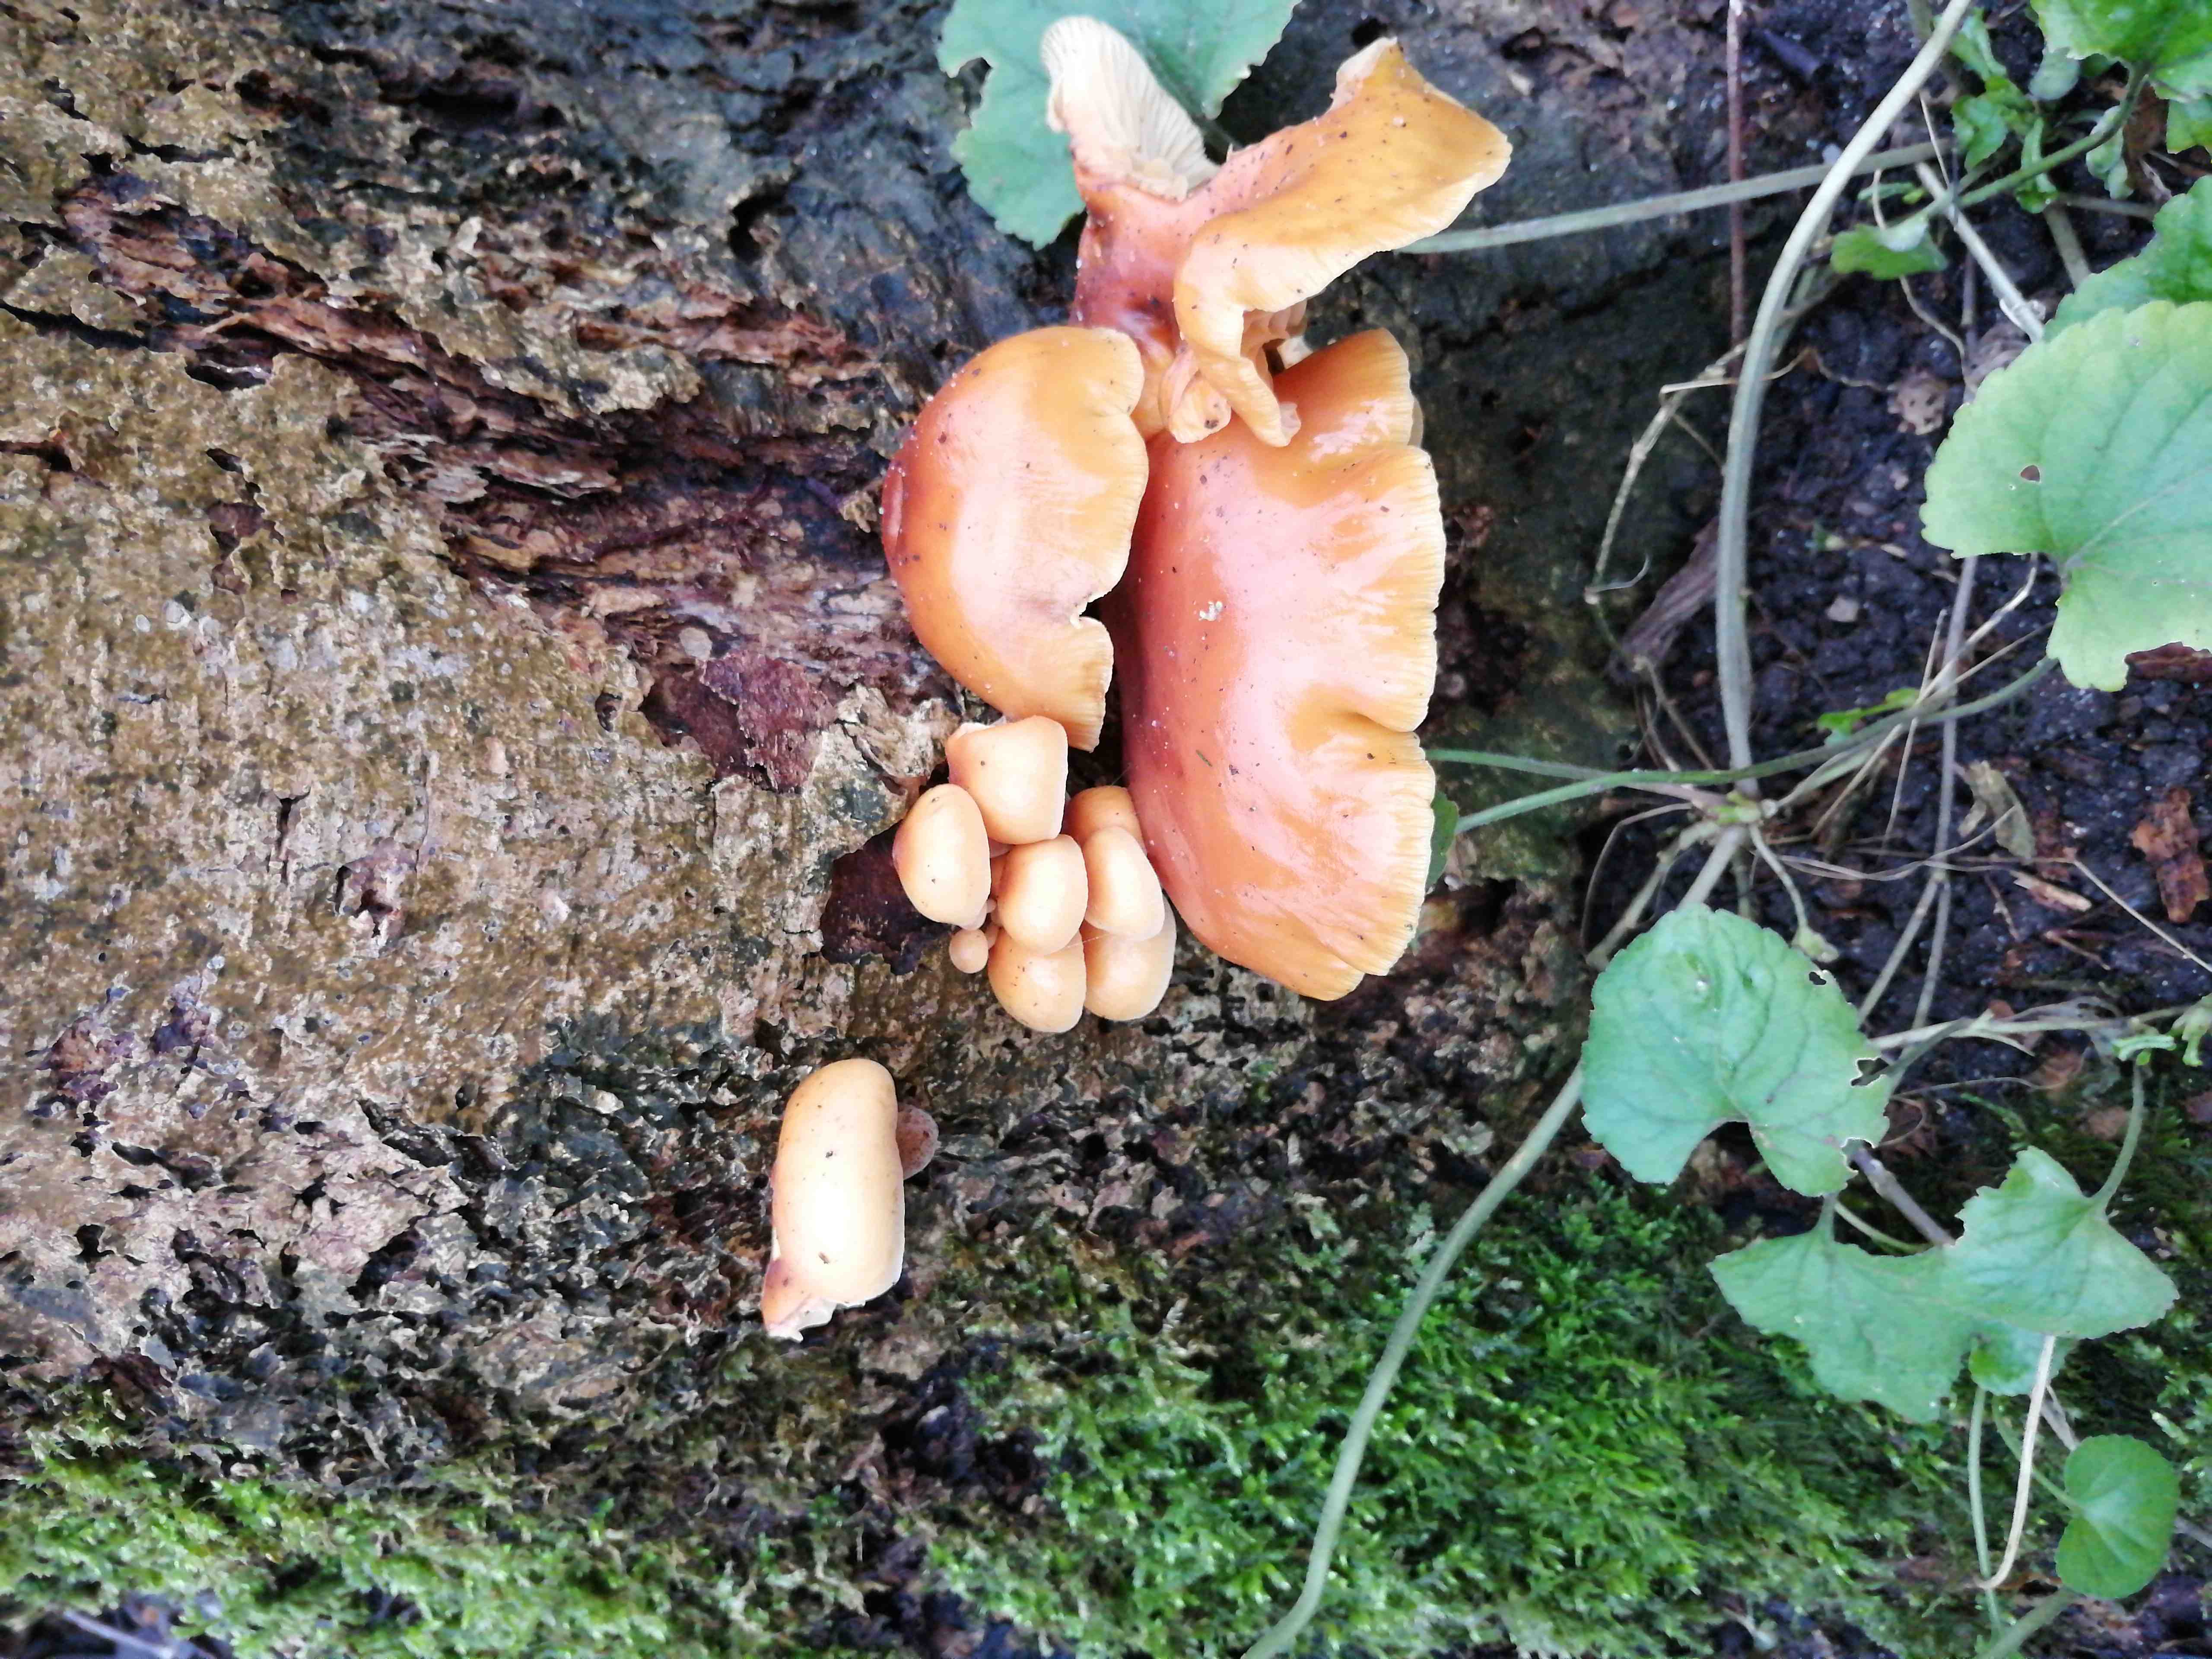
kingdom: Fungi
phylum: Basidiomycota
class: Agaricomycetes
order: Agaricales
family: Physalacriaceae
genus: Flammulina
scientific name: Flammulina
